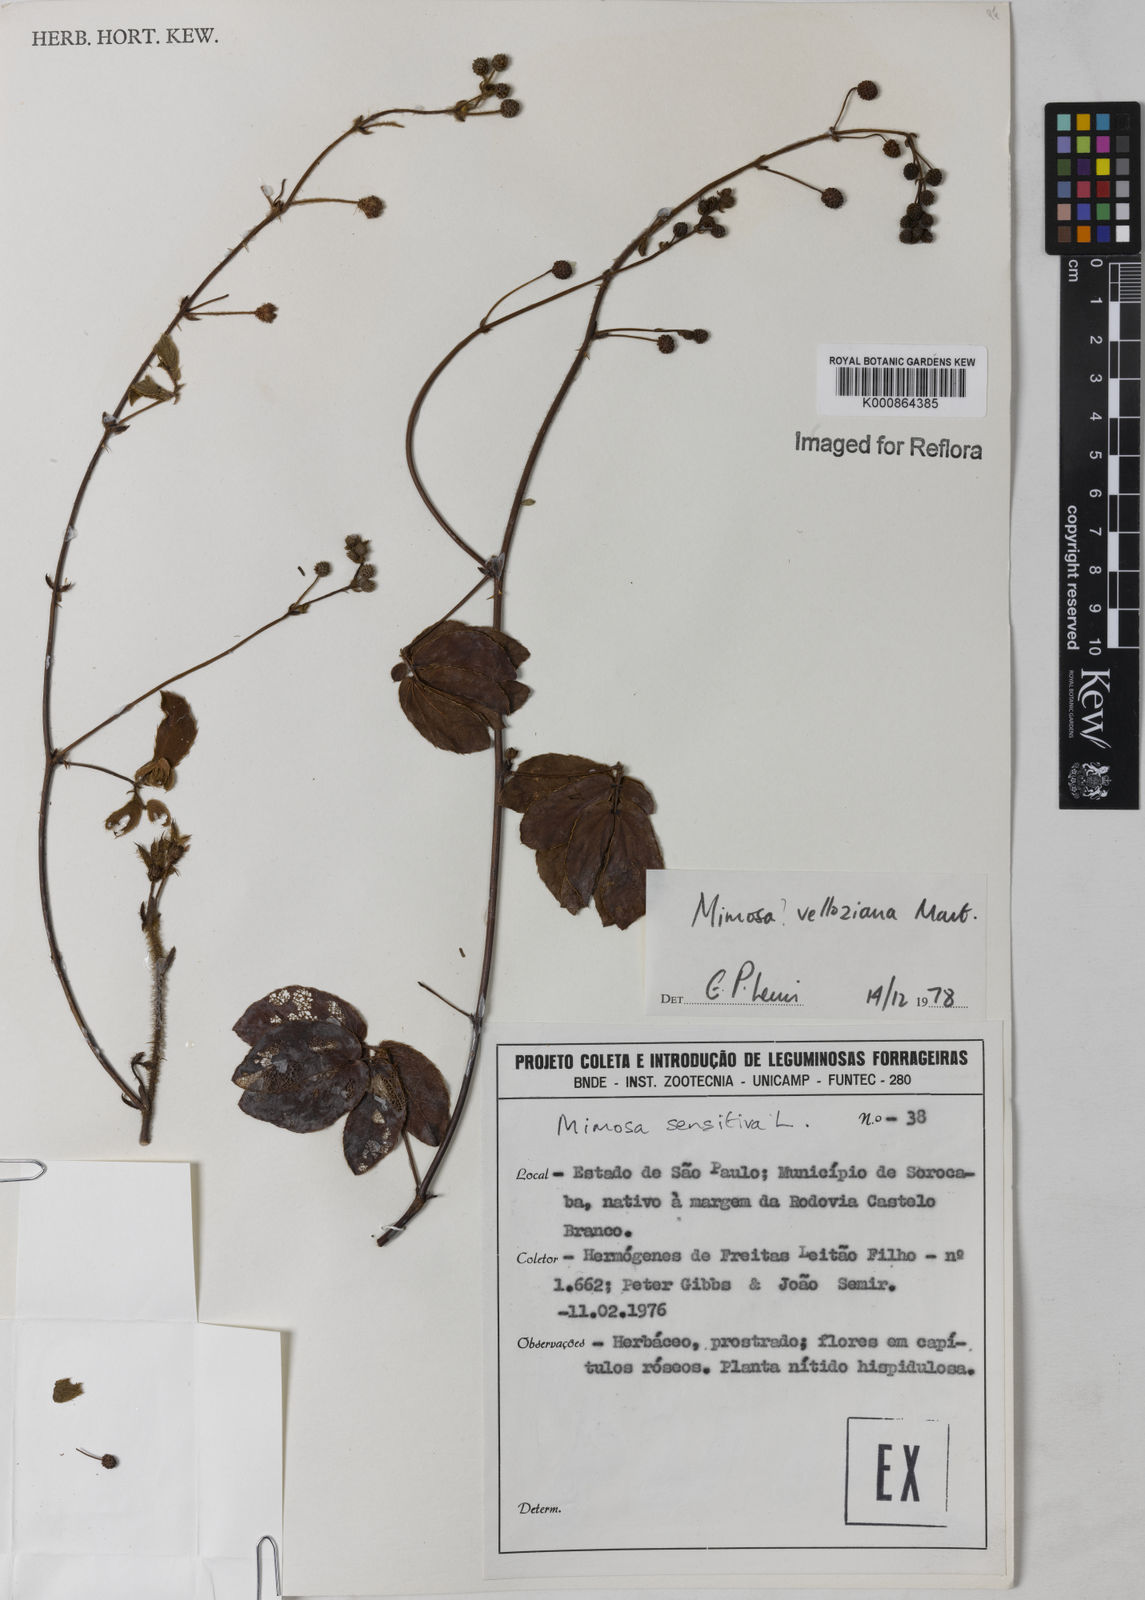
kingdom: Plantae
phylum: Tracheophyta
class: Magnoliopsida
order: Fabales
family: Fabaceae
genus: Mimosa
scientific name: Mimosa debilis
